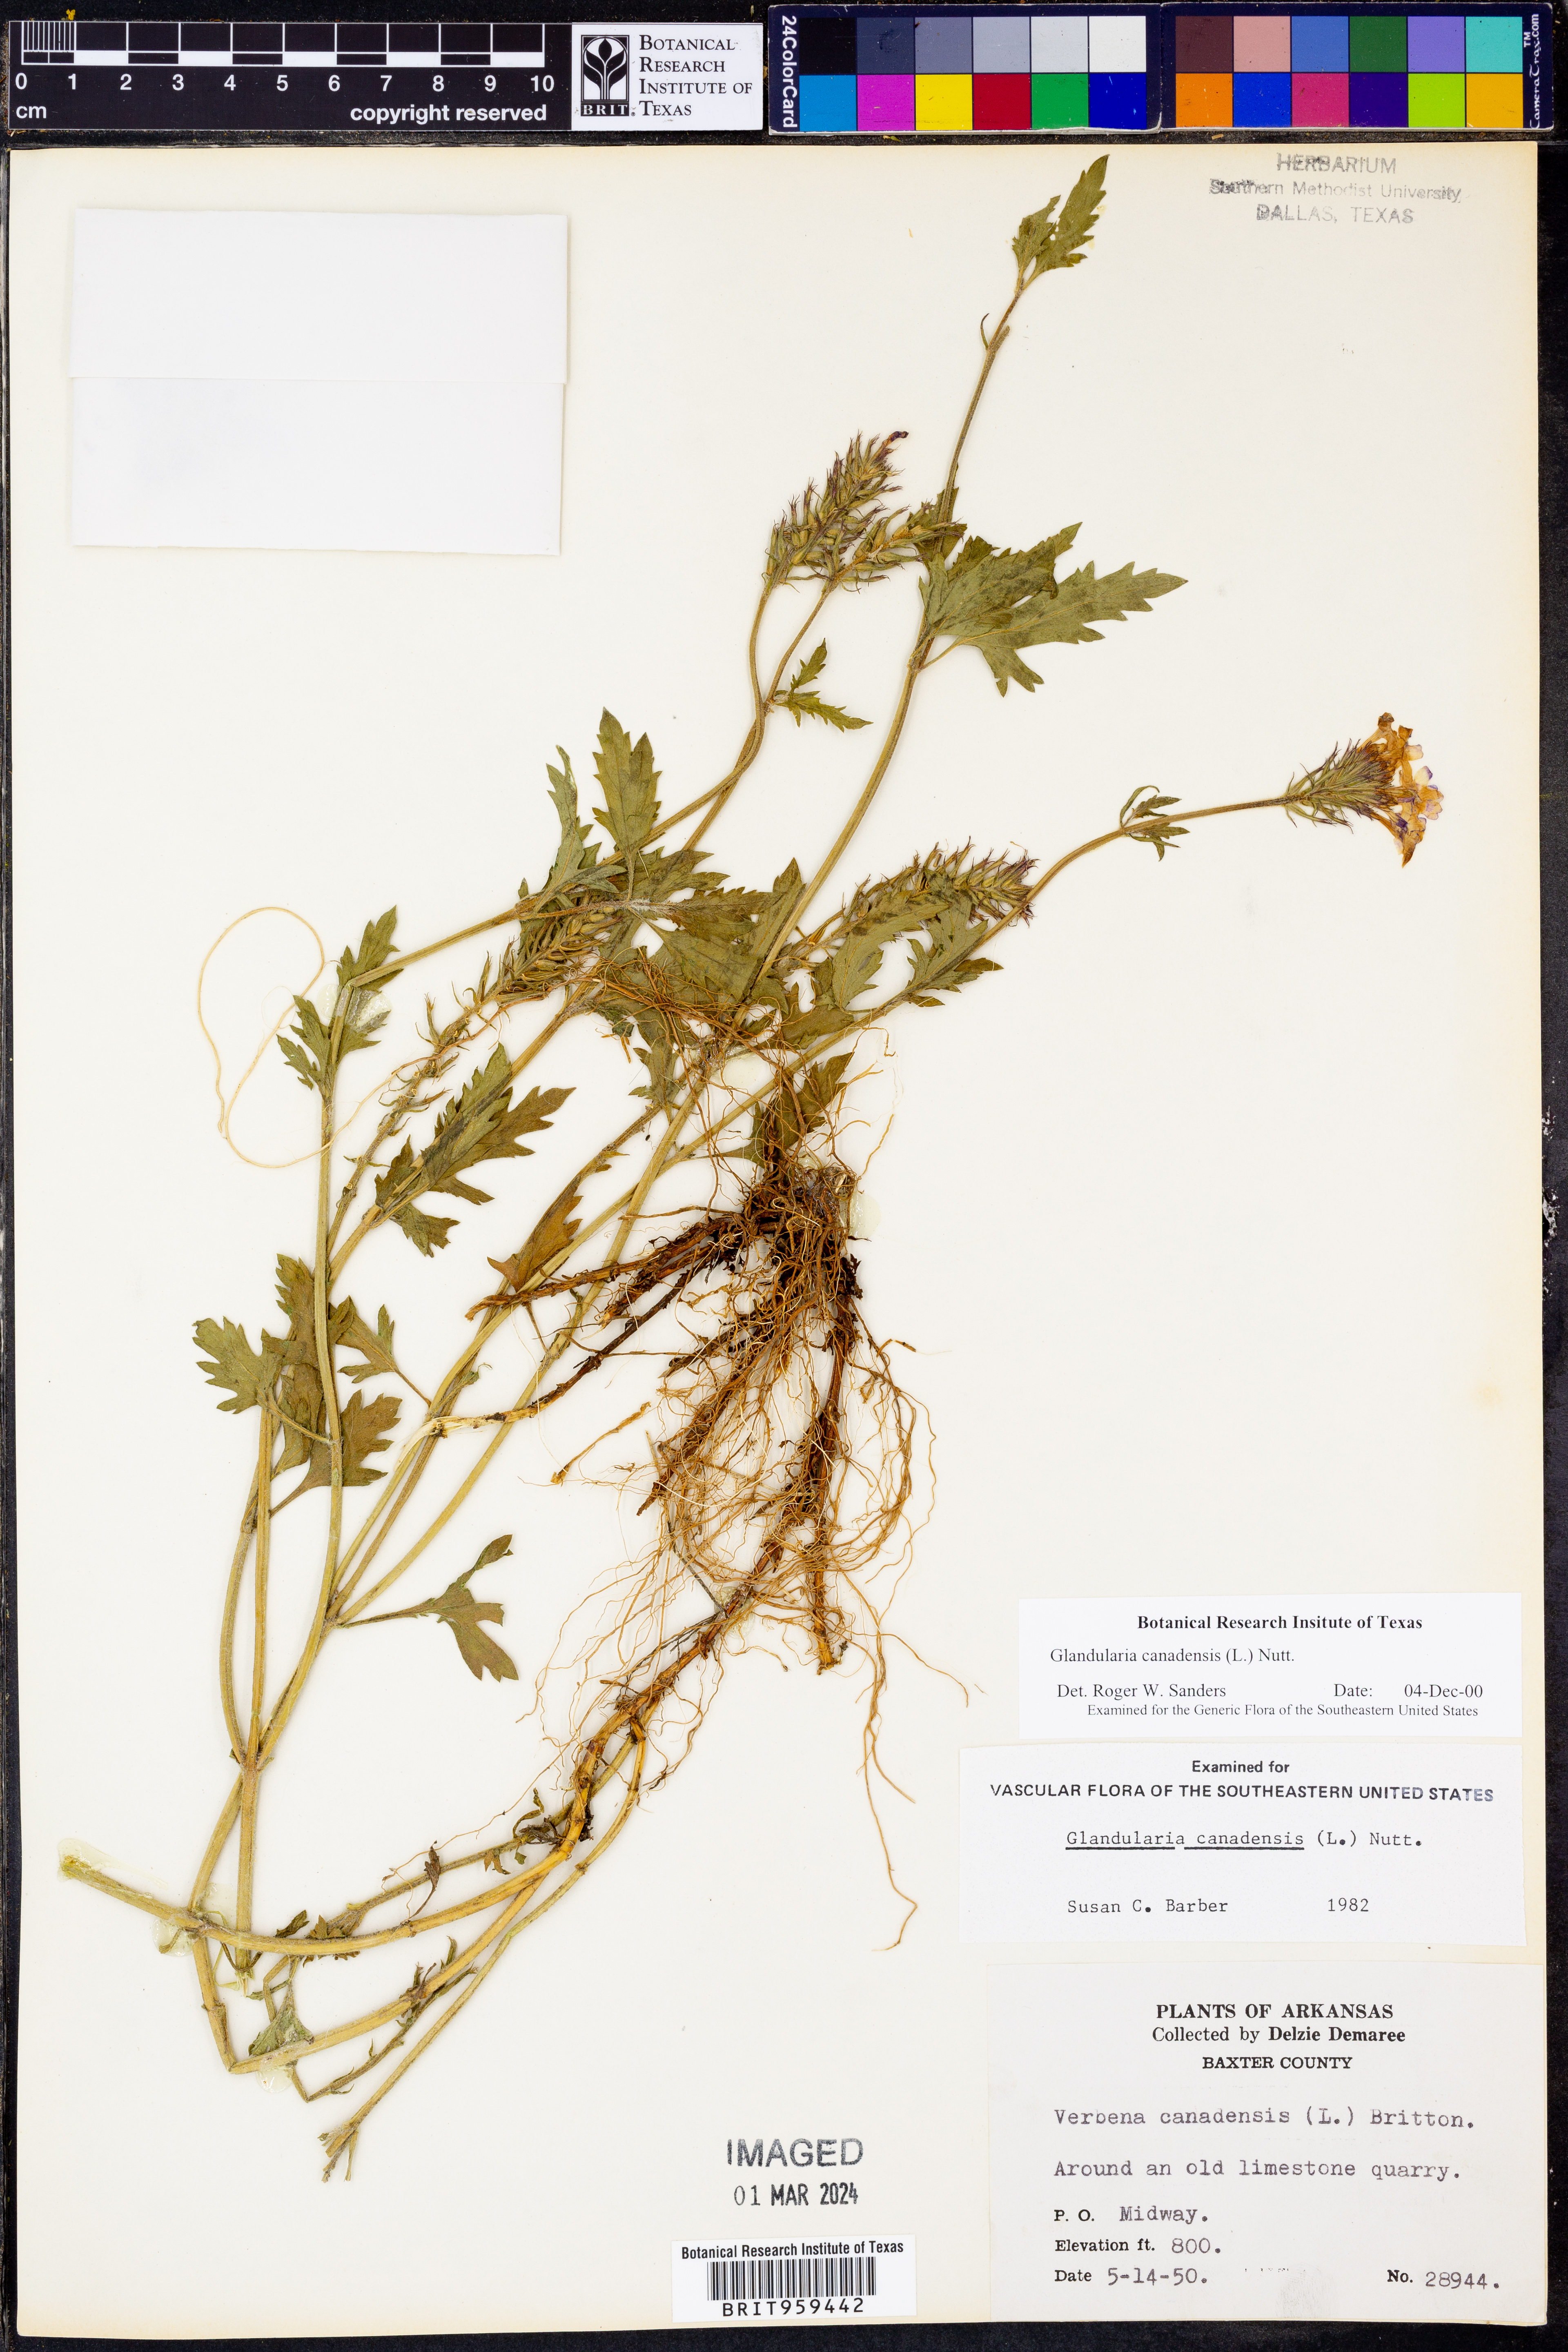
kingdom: Plantae
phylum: Tracheophyta
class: Magnoliopsida
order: Lamiales
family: Verbenaceae
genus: Verbena
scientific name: Verbena canadensis
